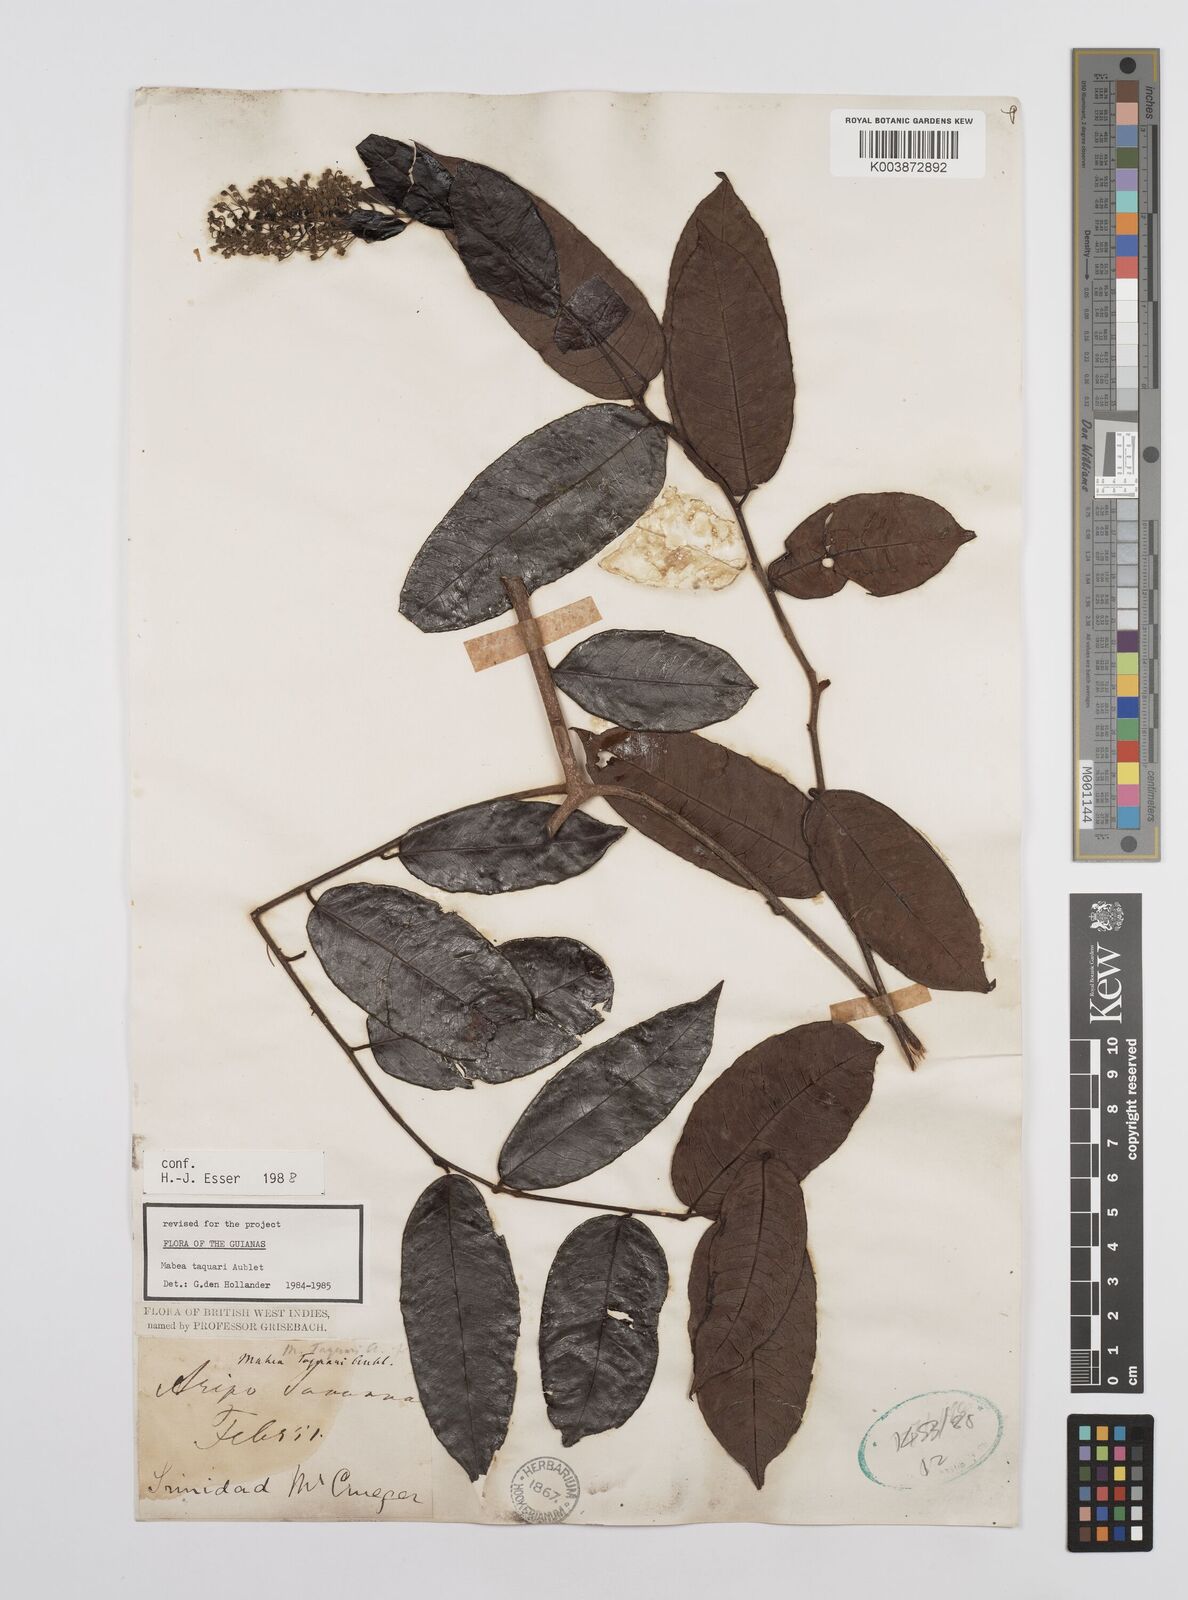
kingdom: Plantae
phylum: Tracheophyta
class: Magnoliopsida
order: Malpighiales
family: Euphorbiaceae
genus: Mabea
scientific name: Mabea taquari
